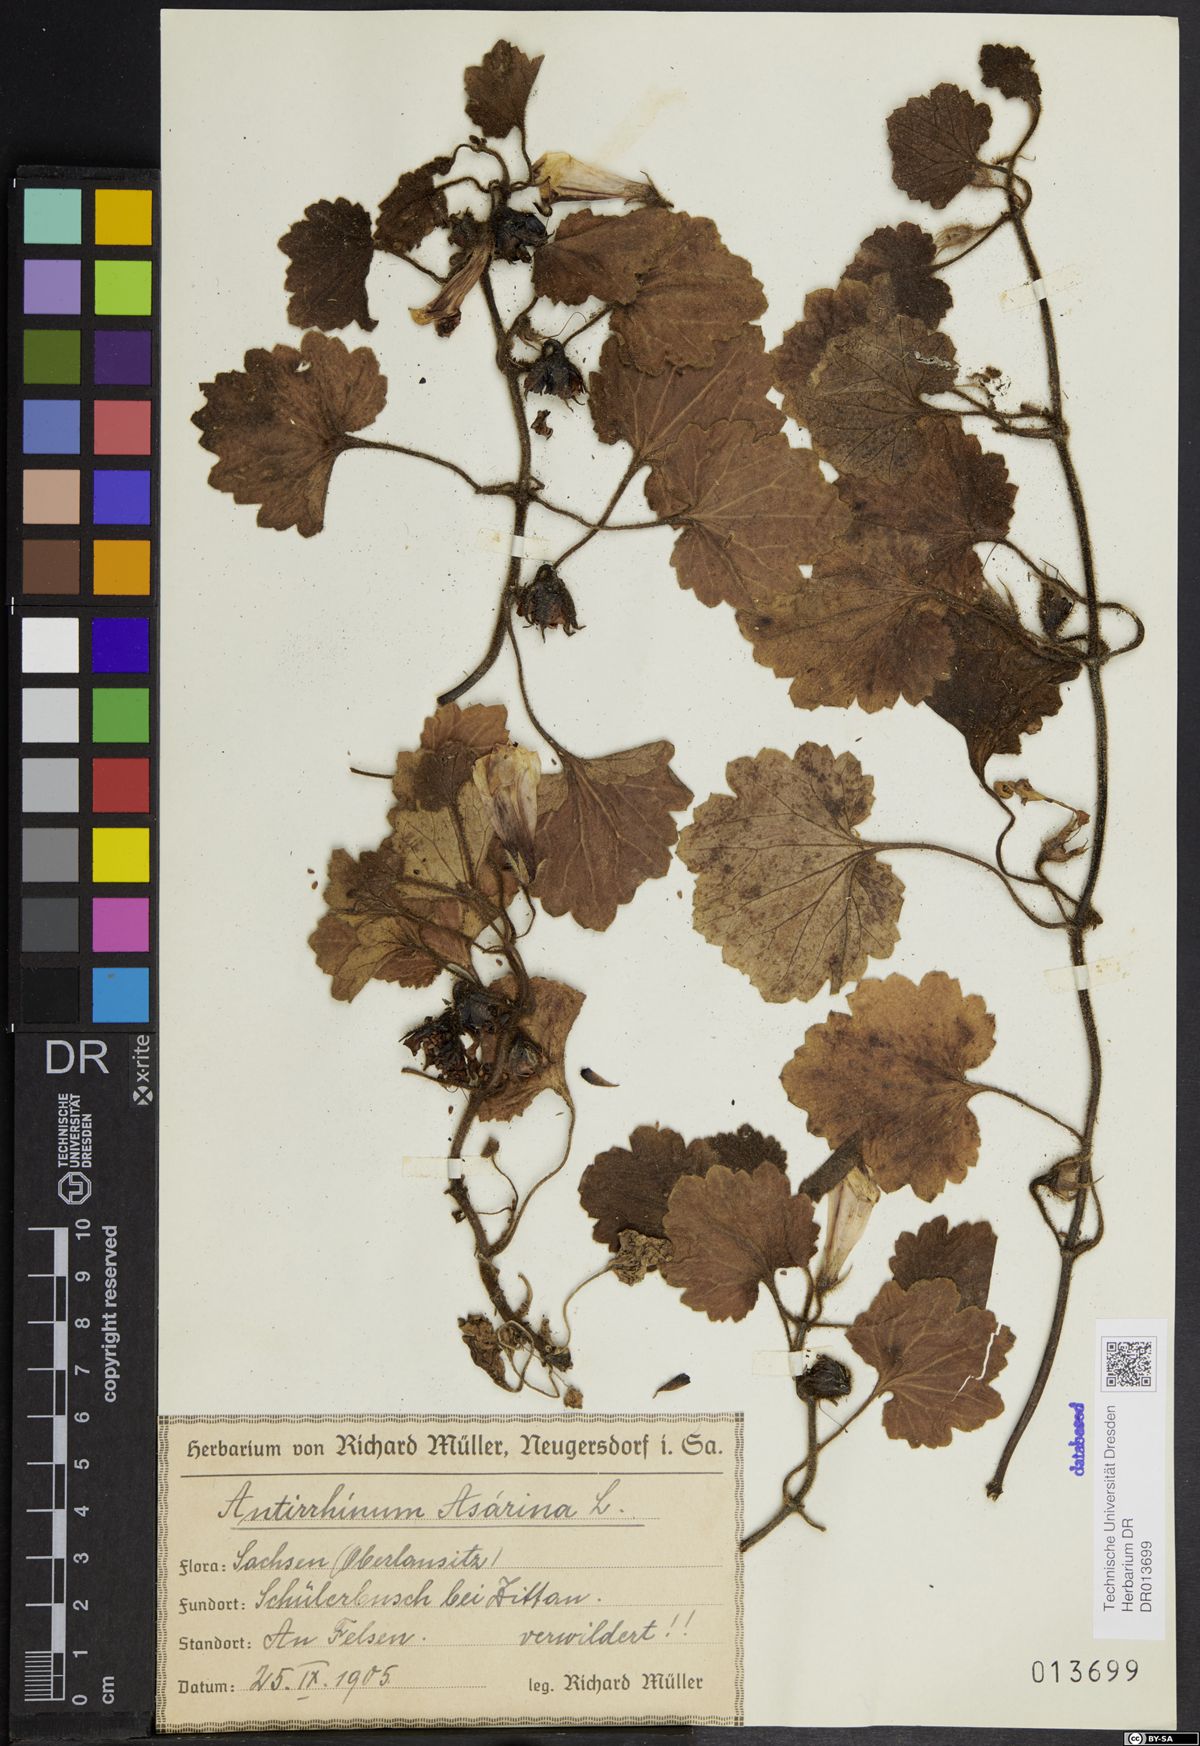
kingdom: Plantae
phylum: Tracheophyta
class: Magnoliopsida
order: Lamiales
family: Plantaginaceae
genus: Asarina
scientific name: Asarina procumbens
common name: Trailing snapdragon
